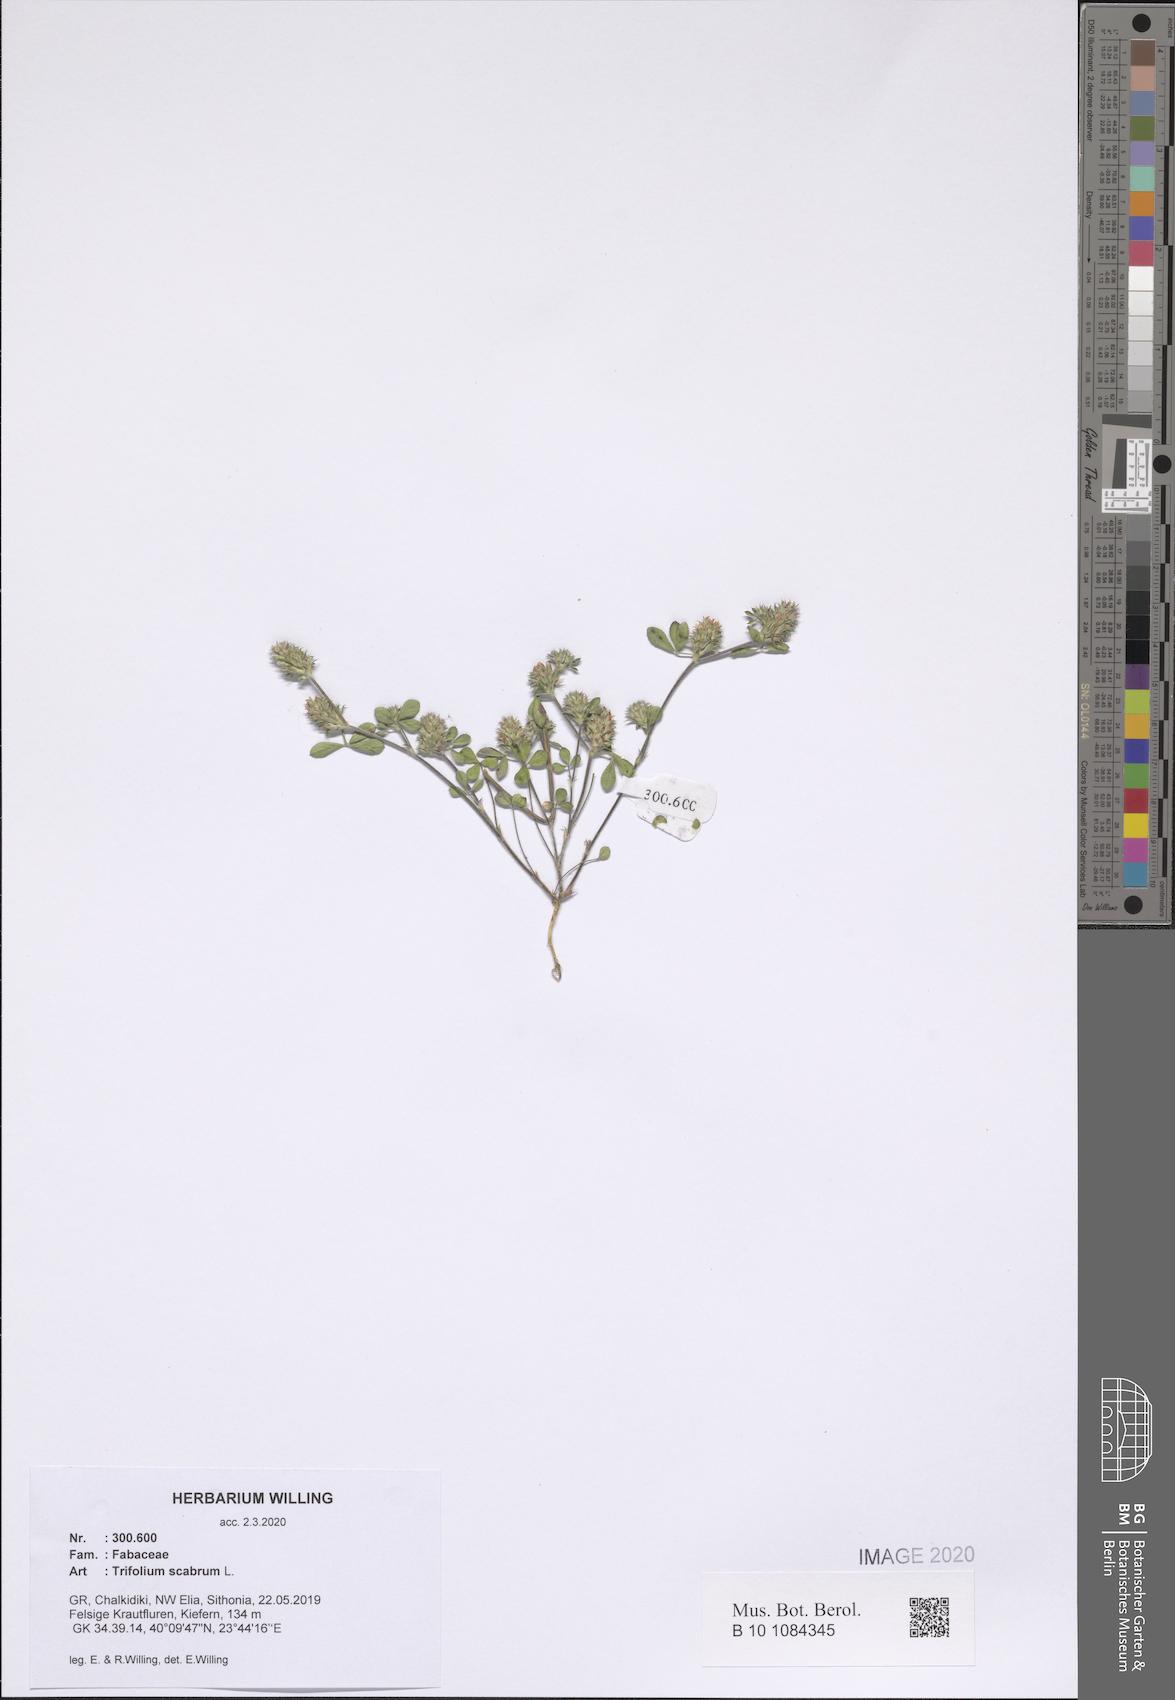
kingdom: Plantae
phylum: Tracheophyta
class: Magnoliopsida
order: Fabales
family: Fabaceae
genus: Trifolium
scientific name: Trifolium scabrum
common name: Rough clover
